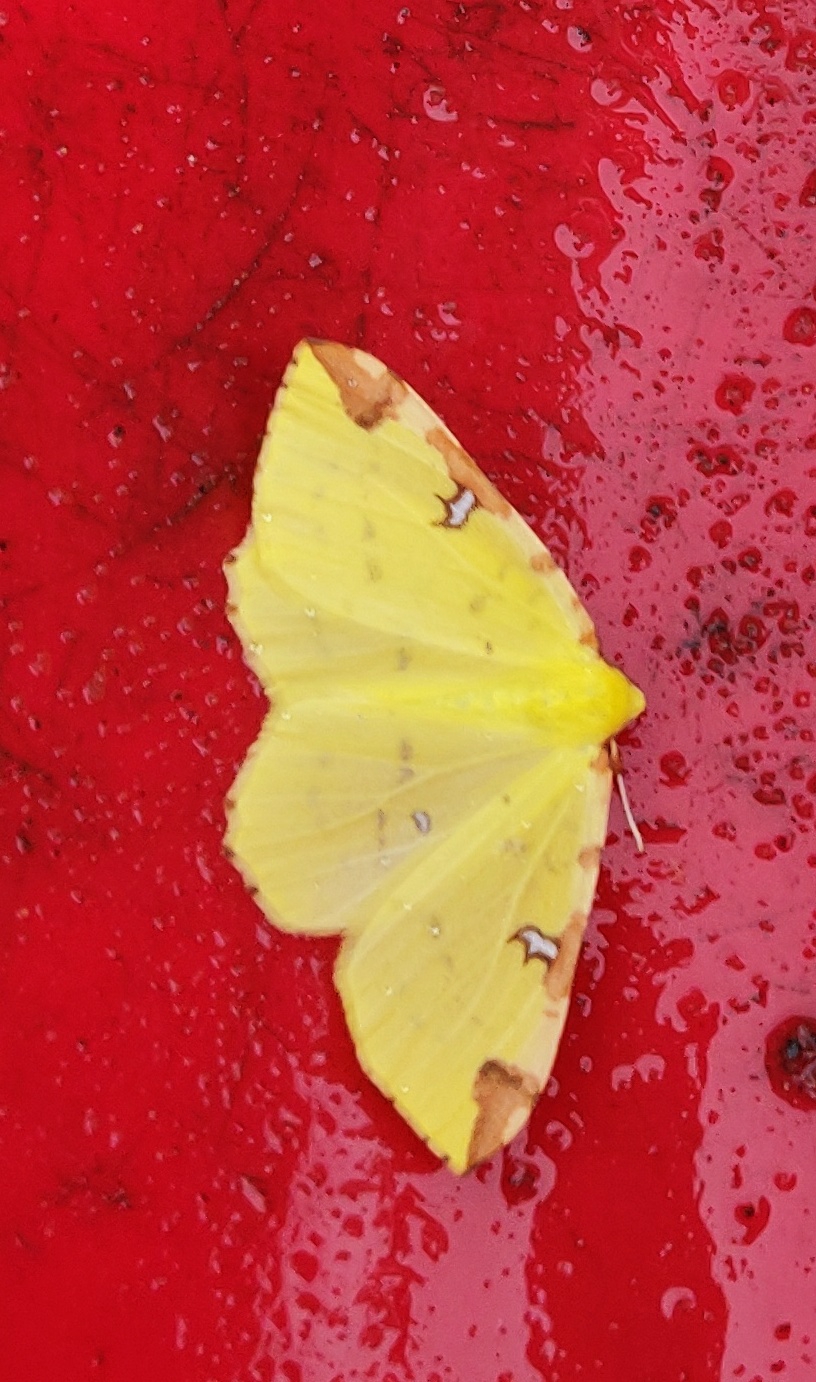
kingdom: Animalia
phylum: Arthropoda
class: Insecta
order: Lepidoptera
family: Geometridae
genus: Opisthograptis
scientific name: Opisthograptis luteolata
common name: Citronmåler
